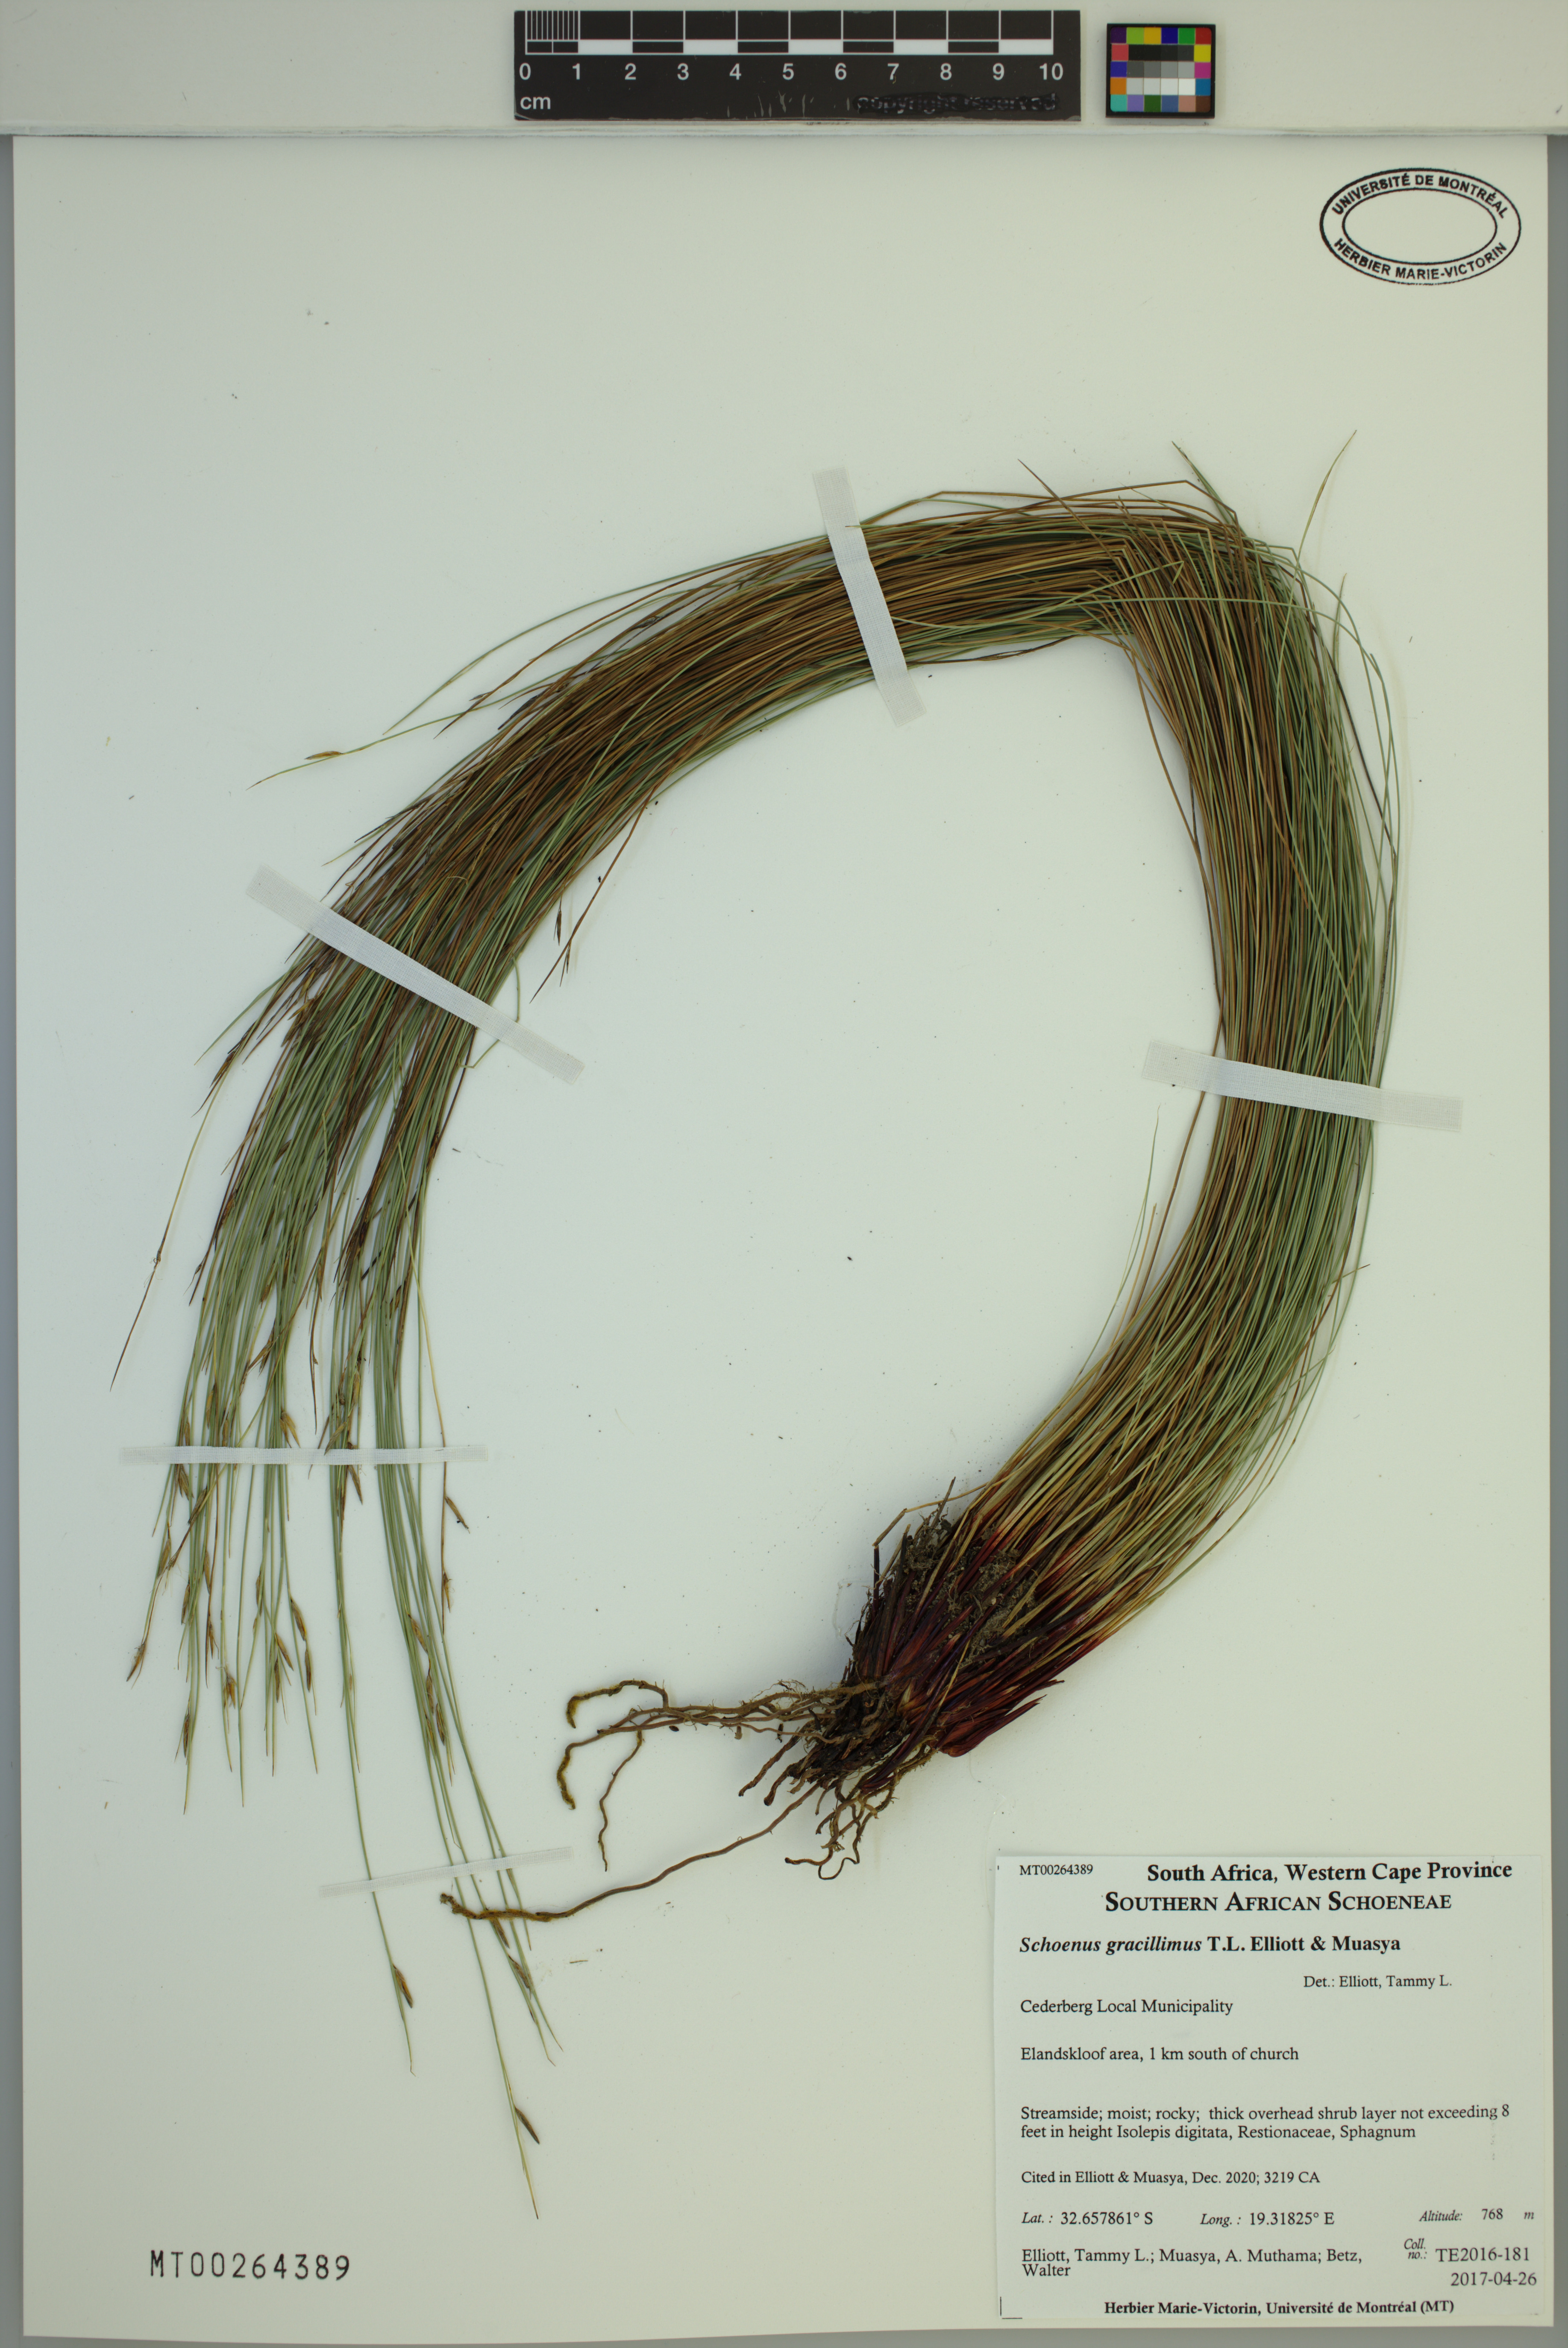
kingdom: Plantae
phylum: Tracheophyta
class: Liliopsida
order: Poales
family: Cyperaceae
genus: Schoenus
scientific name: Schoenus gracillimus
